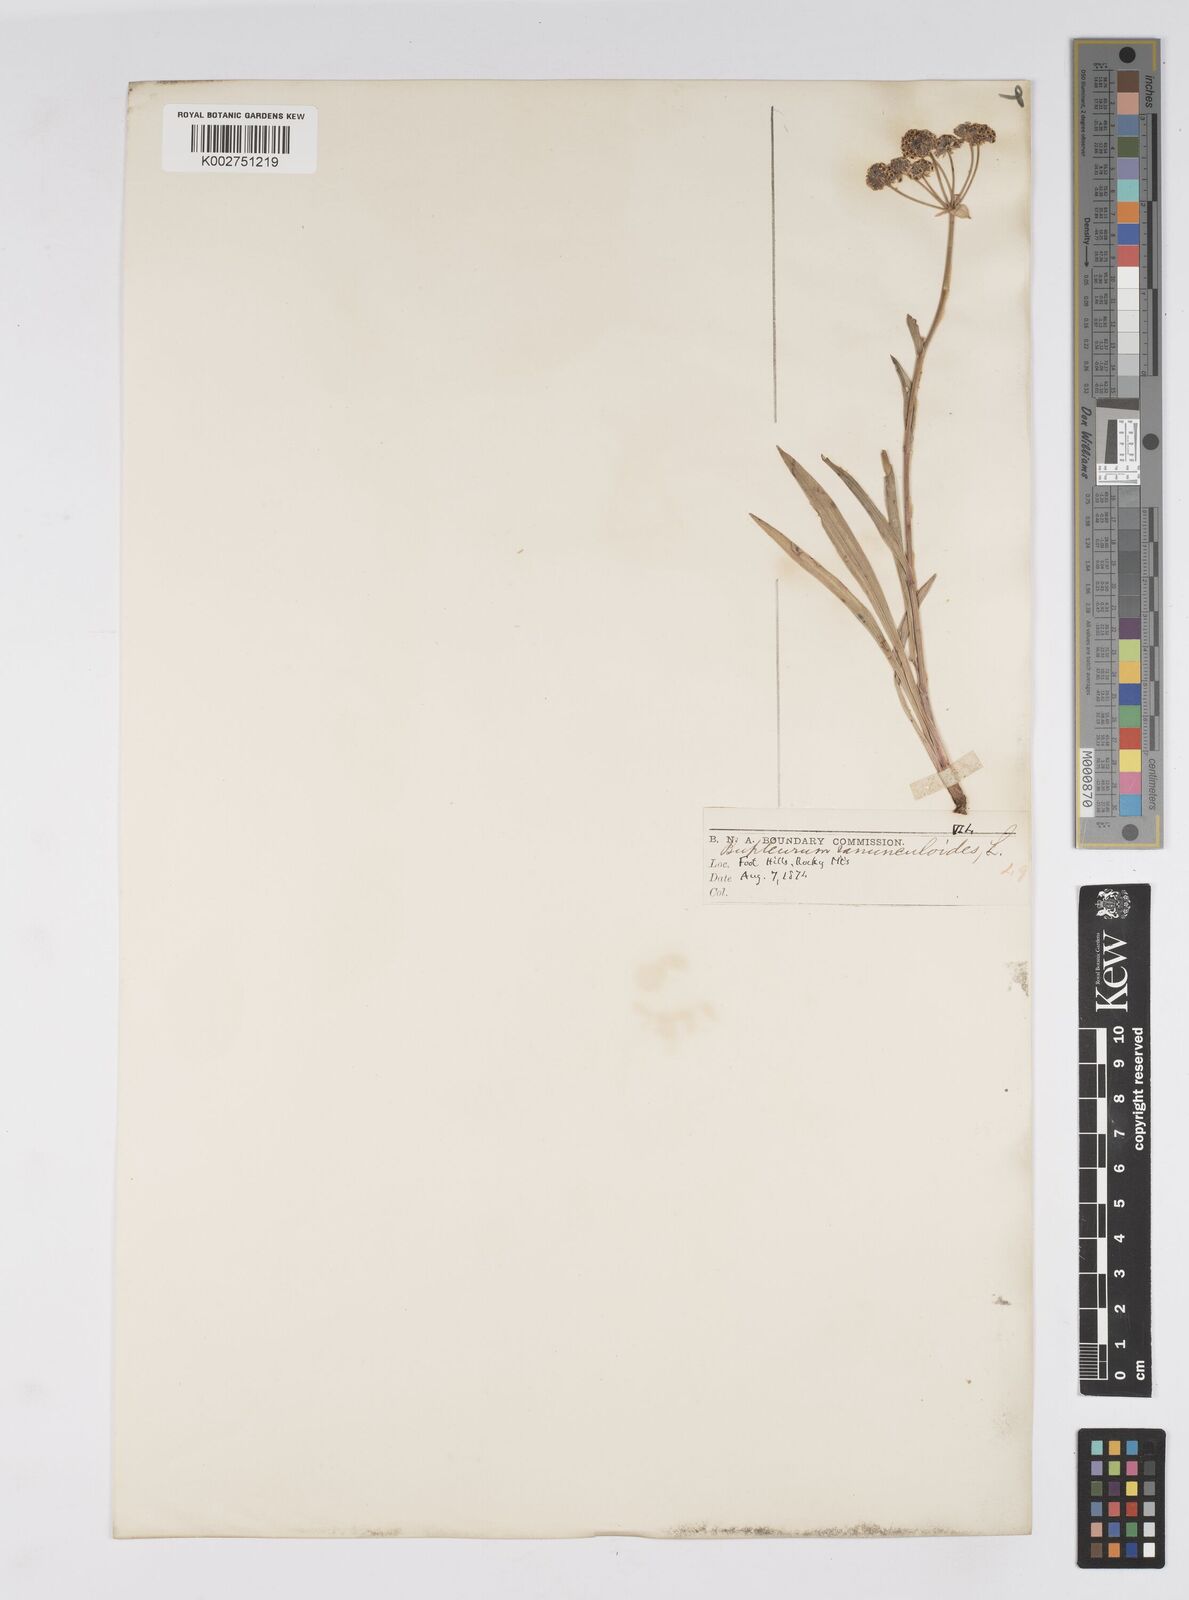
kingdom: Plantae
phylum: Tracheophyta
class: Magnoliopsida
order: Apiales
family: Apiaceae
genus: Bupleurum
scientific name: Bupleurum americanum
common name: American thoroughwax
